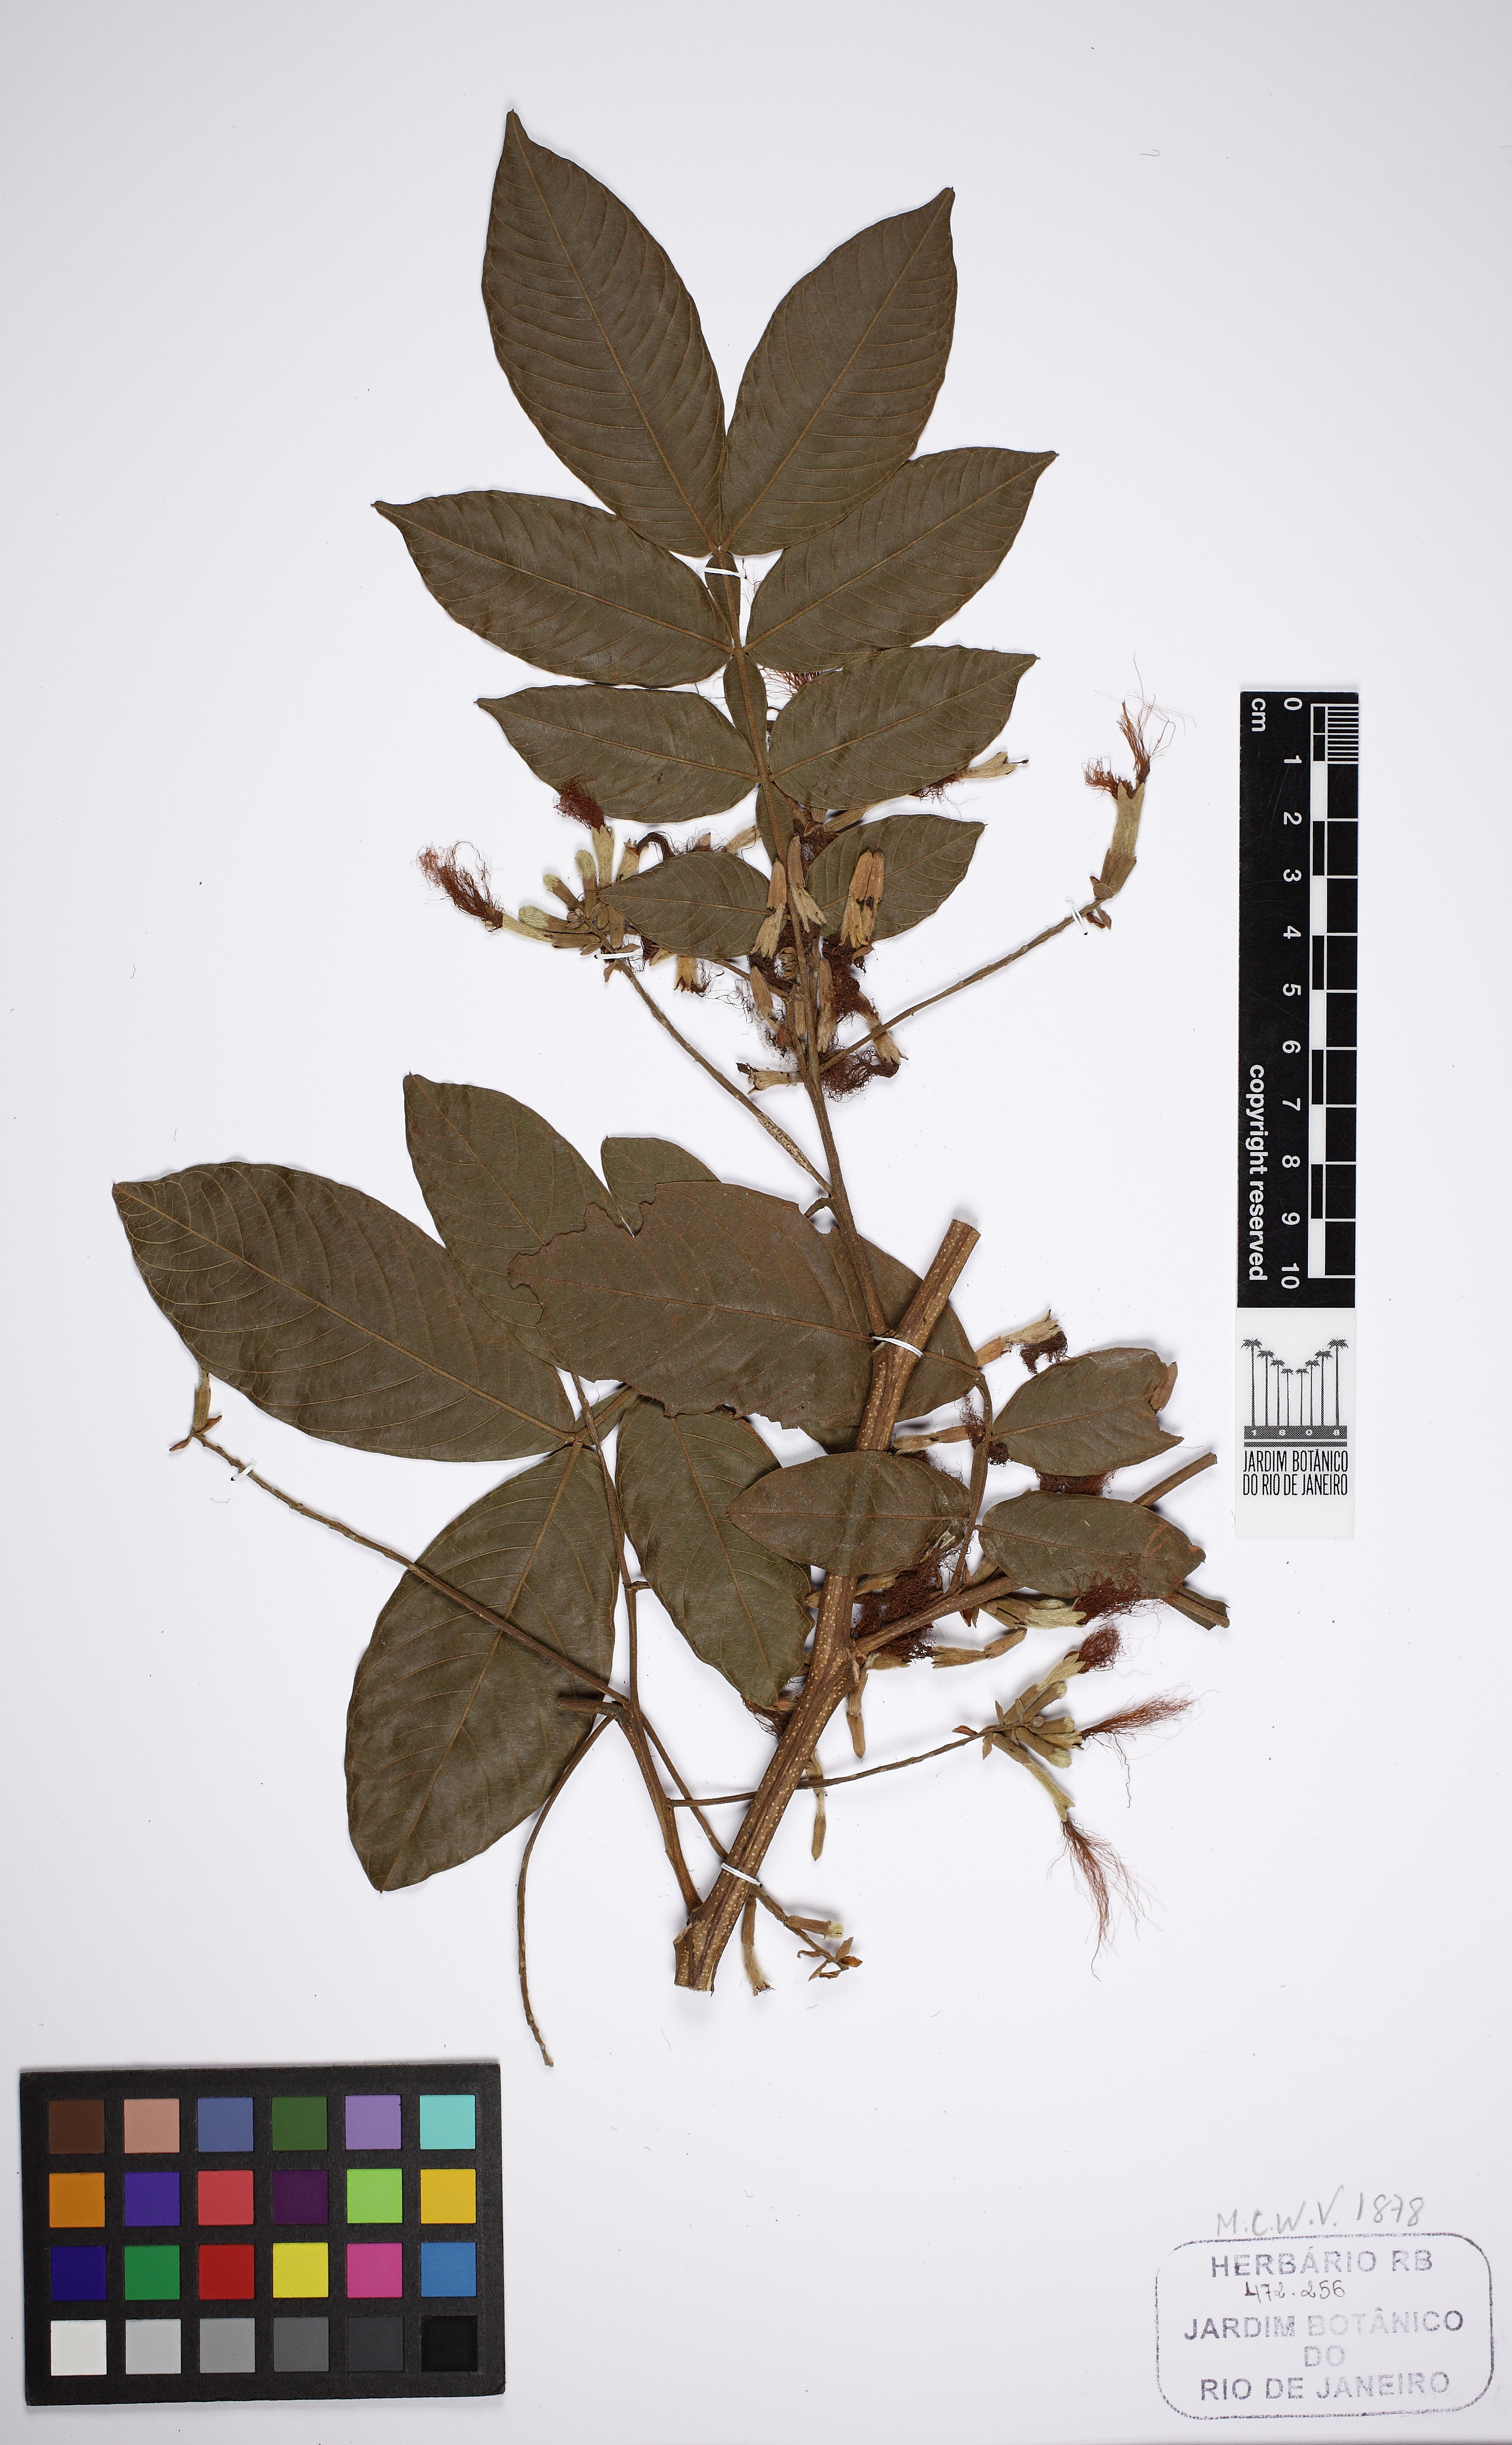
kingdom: Plantae
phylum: Tracheophyta
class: Magnoliopsida
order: Fabales
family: Fabaceae
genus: Inga
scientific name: Inga edulis
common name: Ice cream bean
